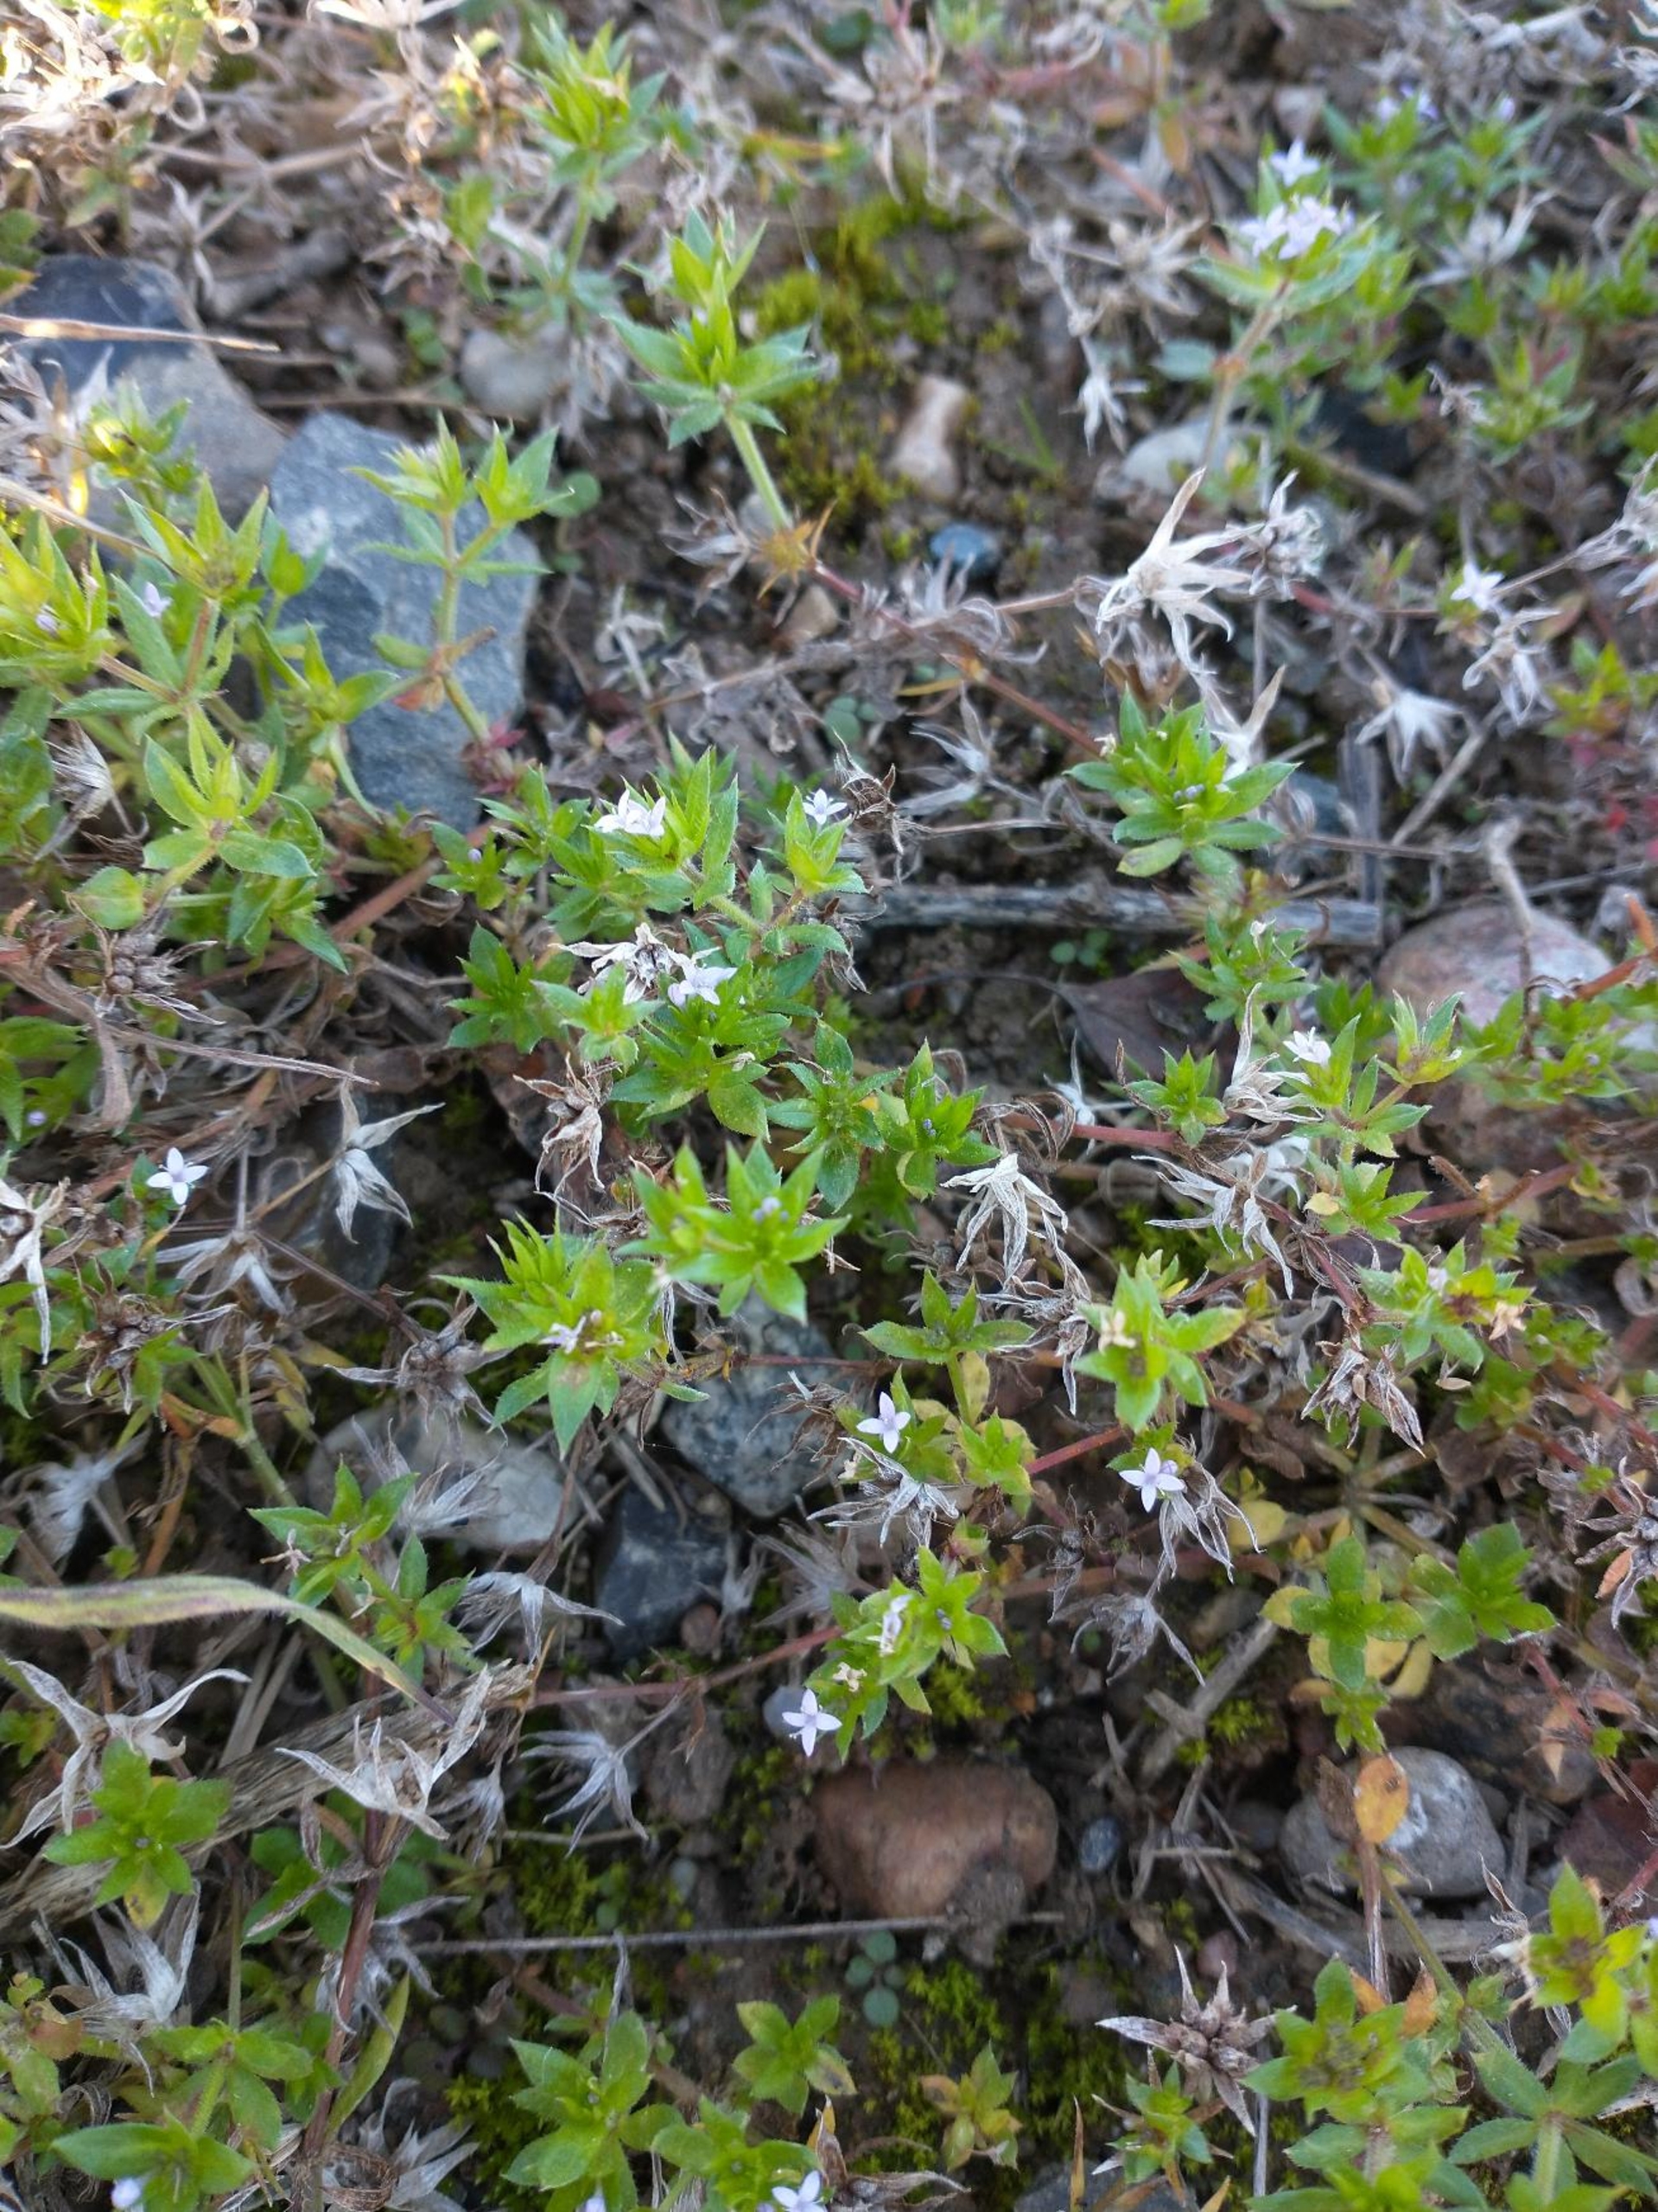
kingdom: Plantae
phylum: Tracheophyta
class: Magnoliopsida
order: Gentianales
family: Rubiaceae
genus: Sherardia
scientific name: Sherardia arvensis
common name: Blåstjerne
